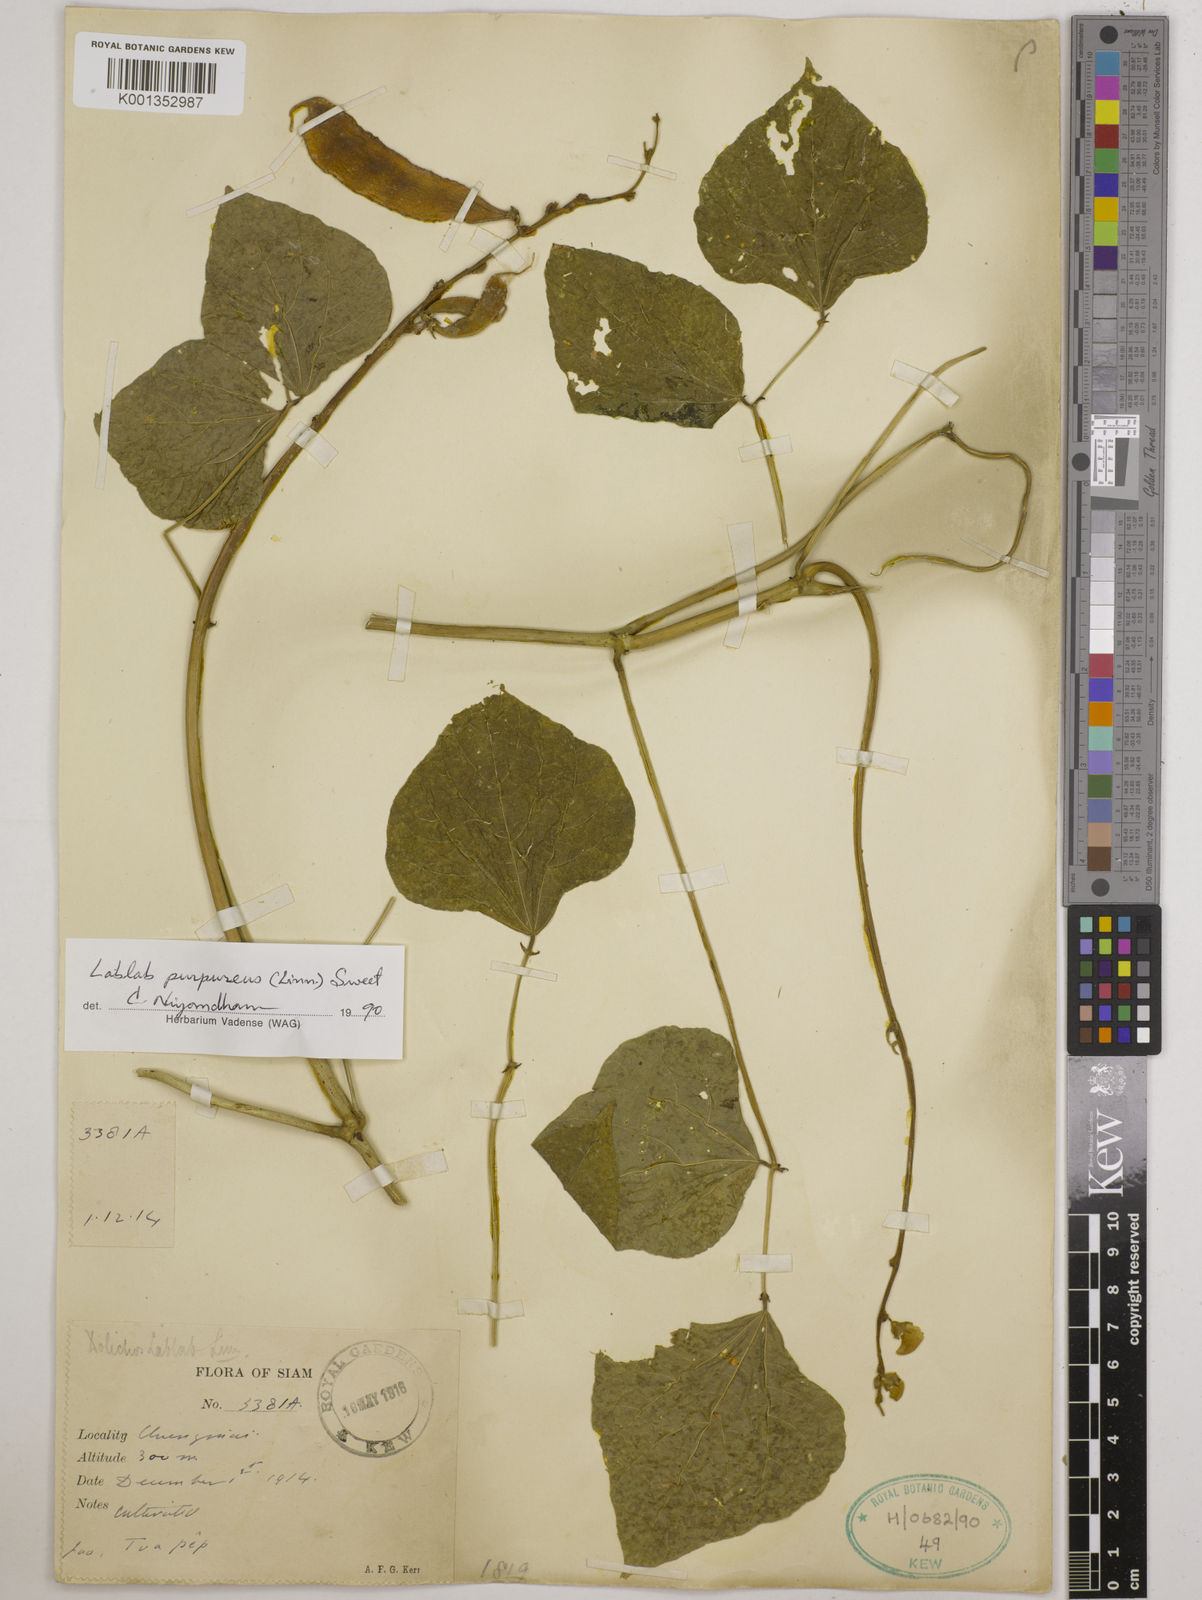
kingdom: Plantae
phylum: Tracheophyta
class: Magnoliopsida
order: Fabales
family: Fabaceae
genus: Lablab
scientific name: Lablab purpureus
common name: Lablab-bean
